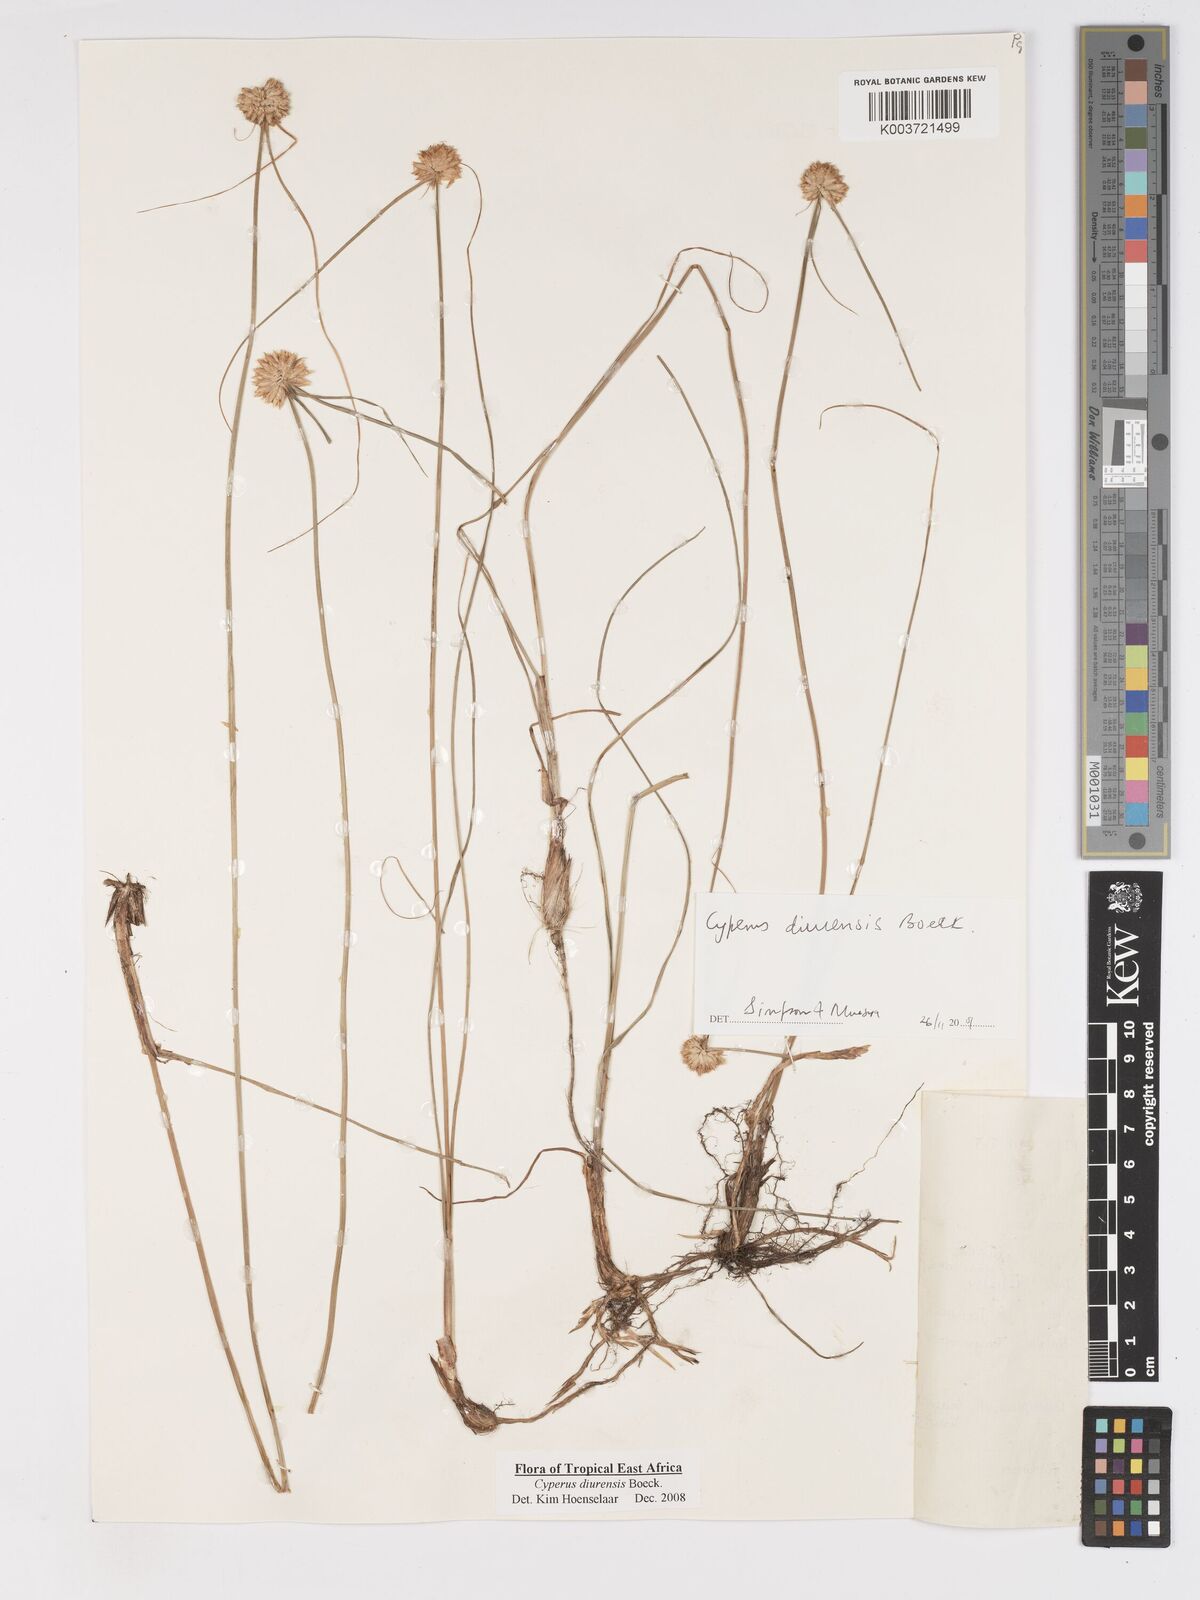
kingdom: Plantae
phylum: Tracheophyta
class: Liliopsida
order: Poales
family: Cyperaceae
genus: Cyperus
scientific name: Cyperus diurensis
